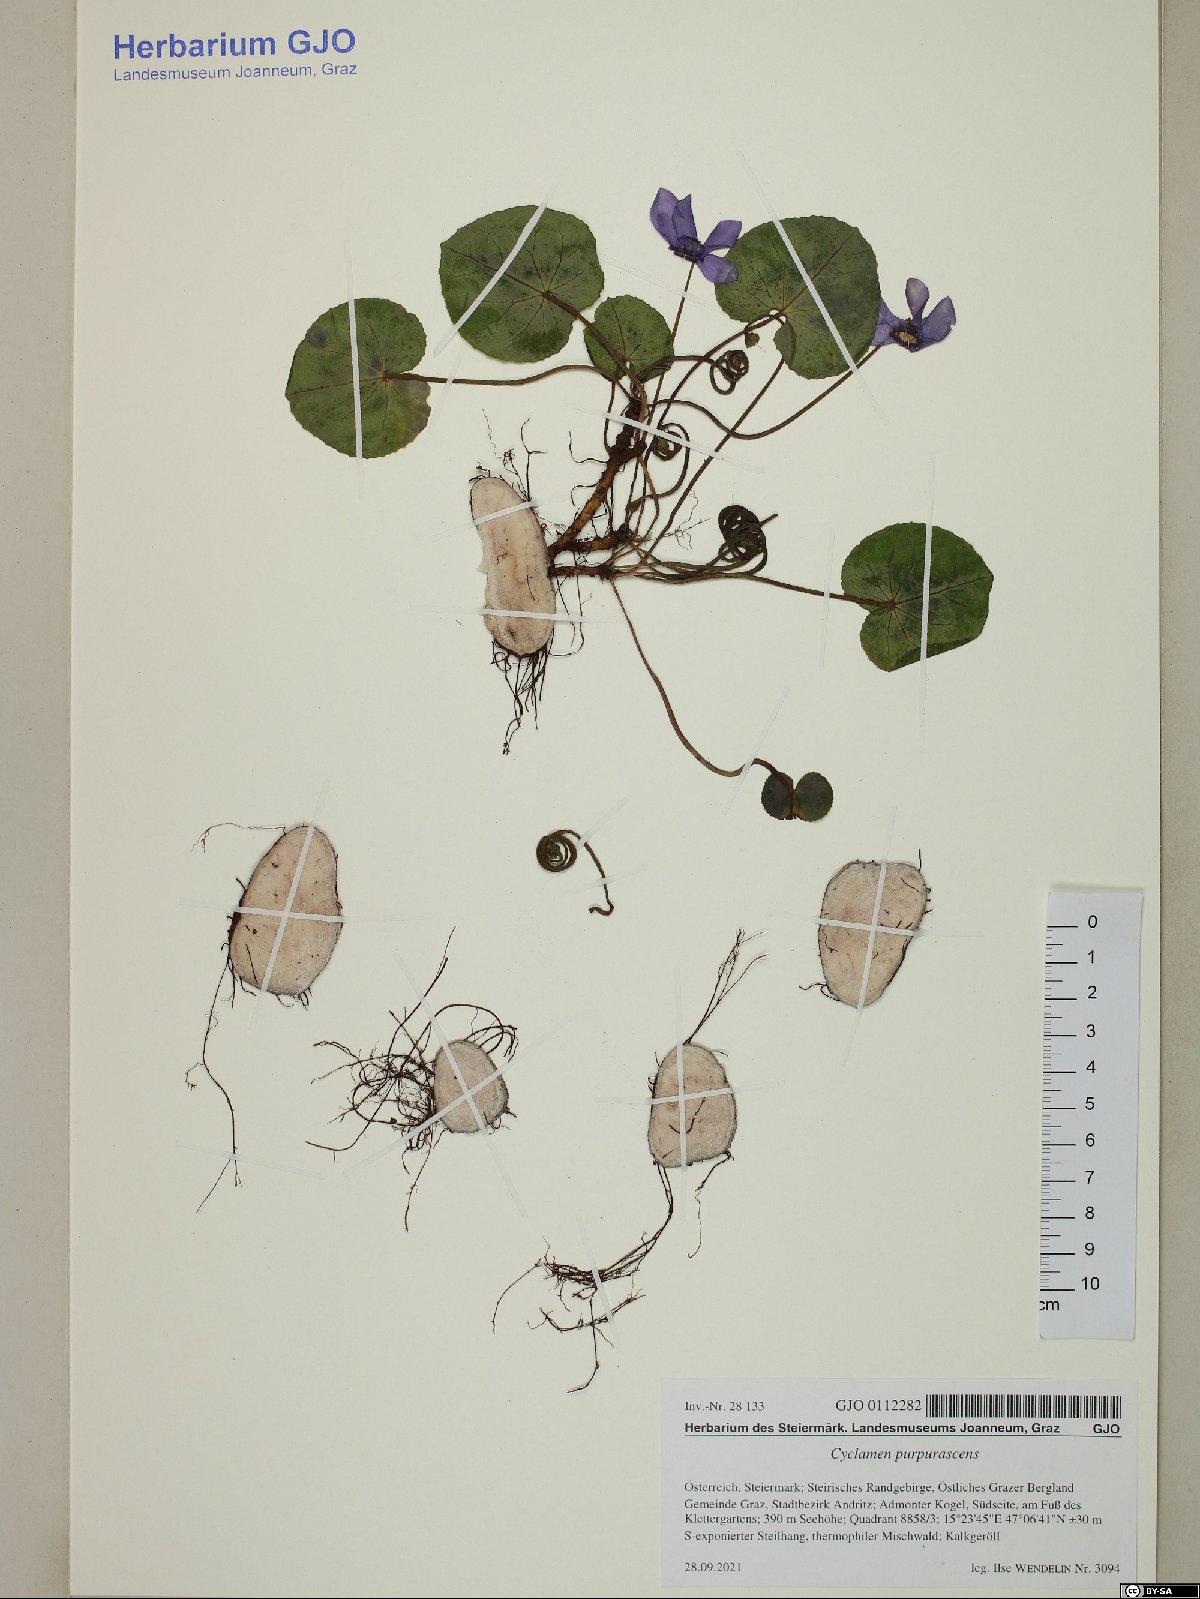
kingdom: Plantae
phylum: Tracheophyta
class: Magnoliopsida
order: Ericales
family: Primulaceae
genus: Cyclamen
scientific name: Cyclamen purpurascens
